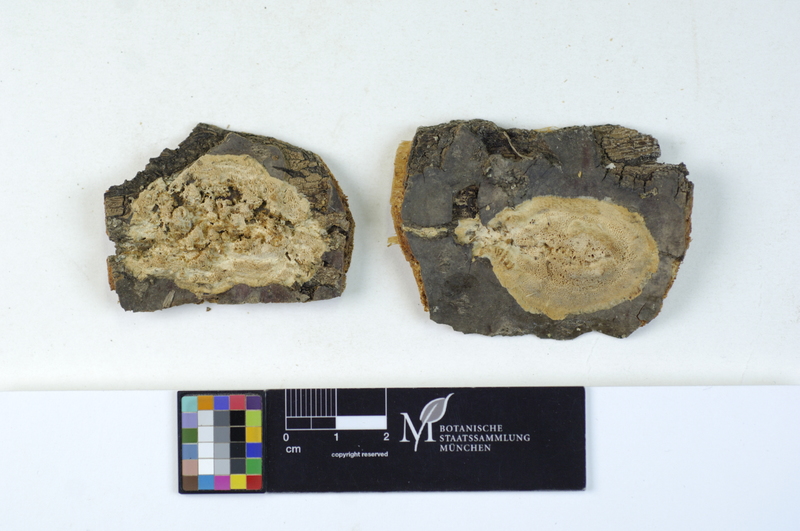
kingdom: Fungi
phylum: Basidiomycota
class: Agaricomycetes
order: Polyporales
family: Irpicaceae
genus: Irpex
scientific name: Irpex latemarginatus
